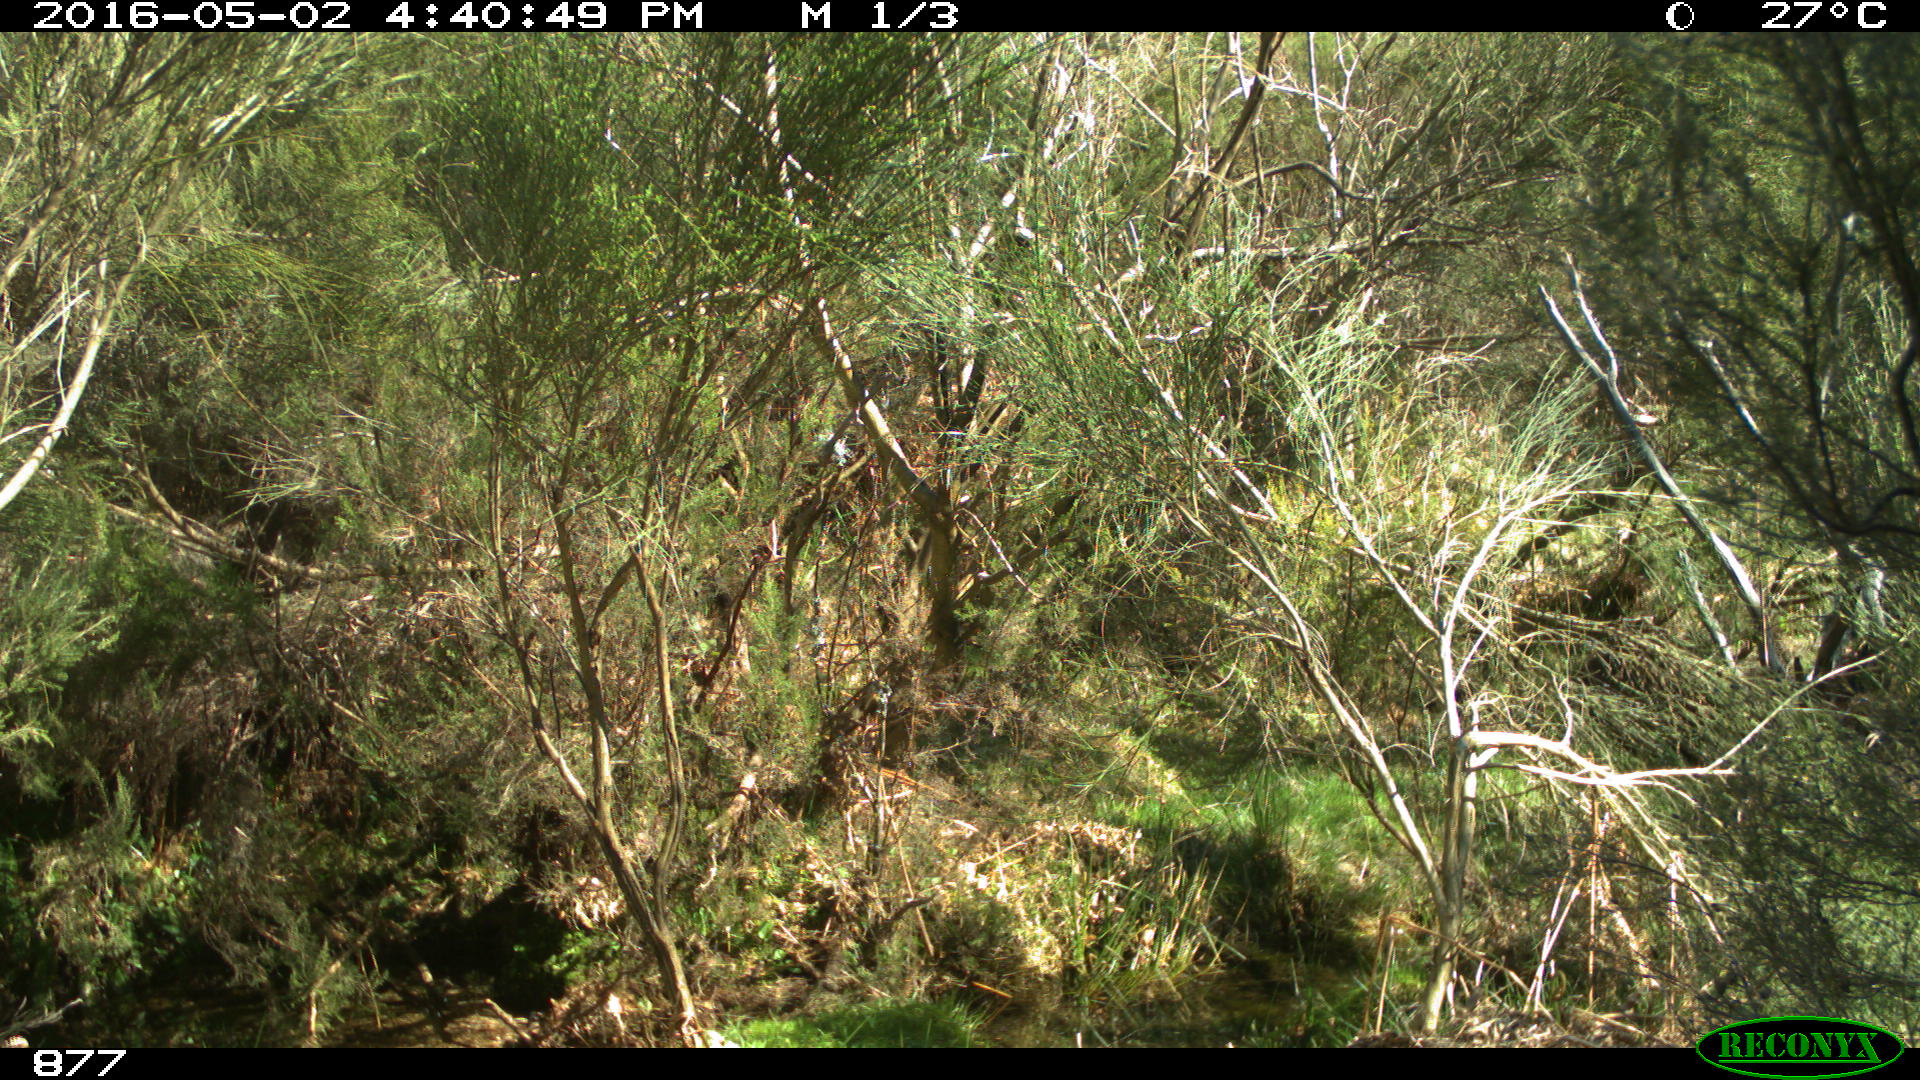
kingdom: Animalia
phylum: Chordata
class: Mammalia
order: Artiodactyla
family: Cervidae
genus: Capreolus
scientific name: Capreolus capreolus
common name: Western roe deer
